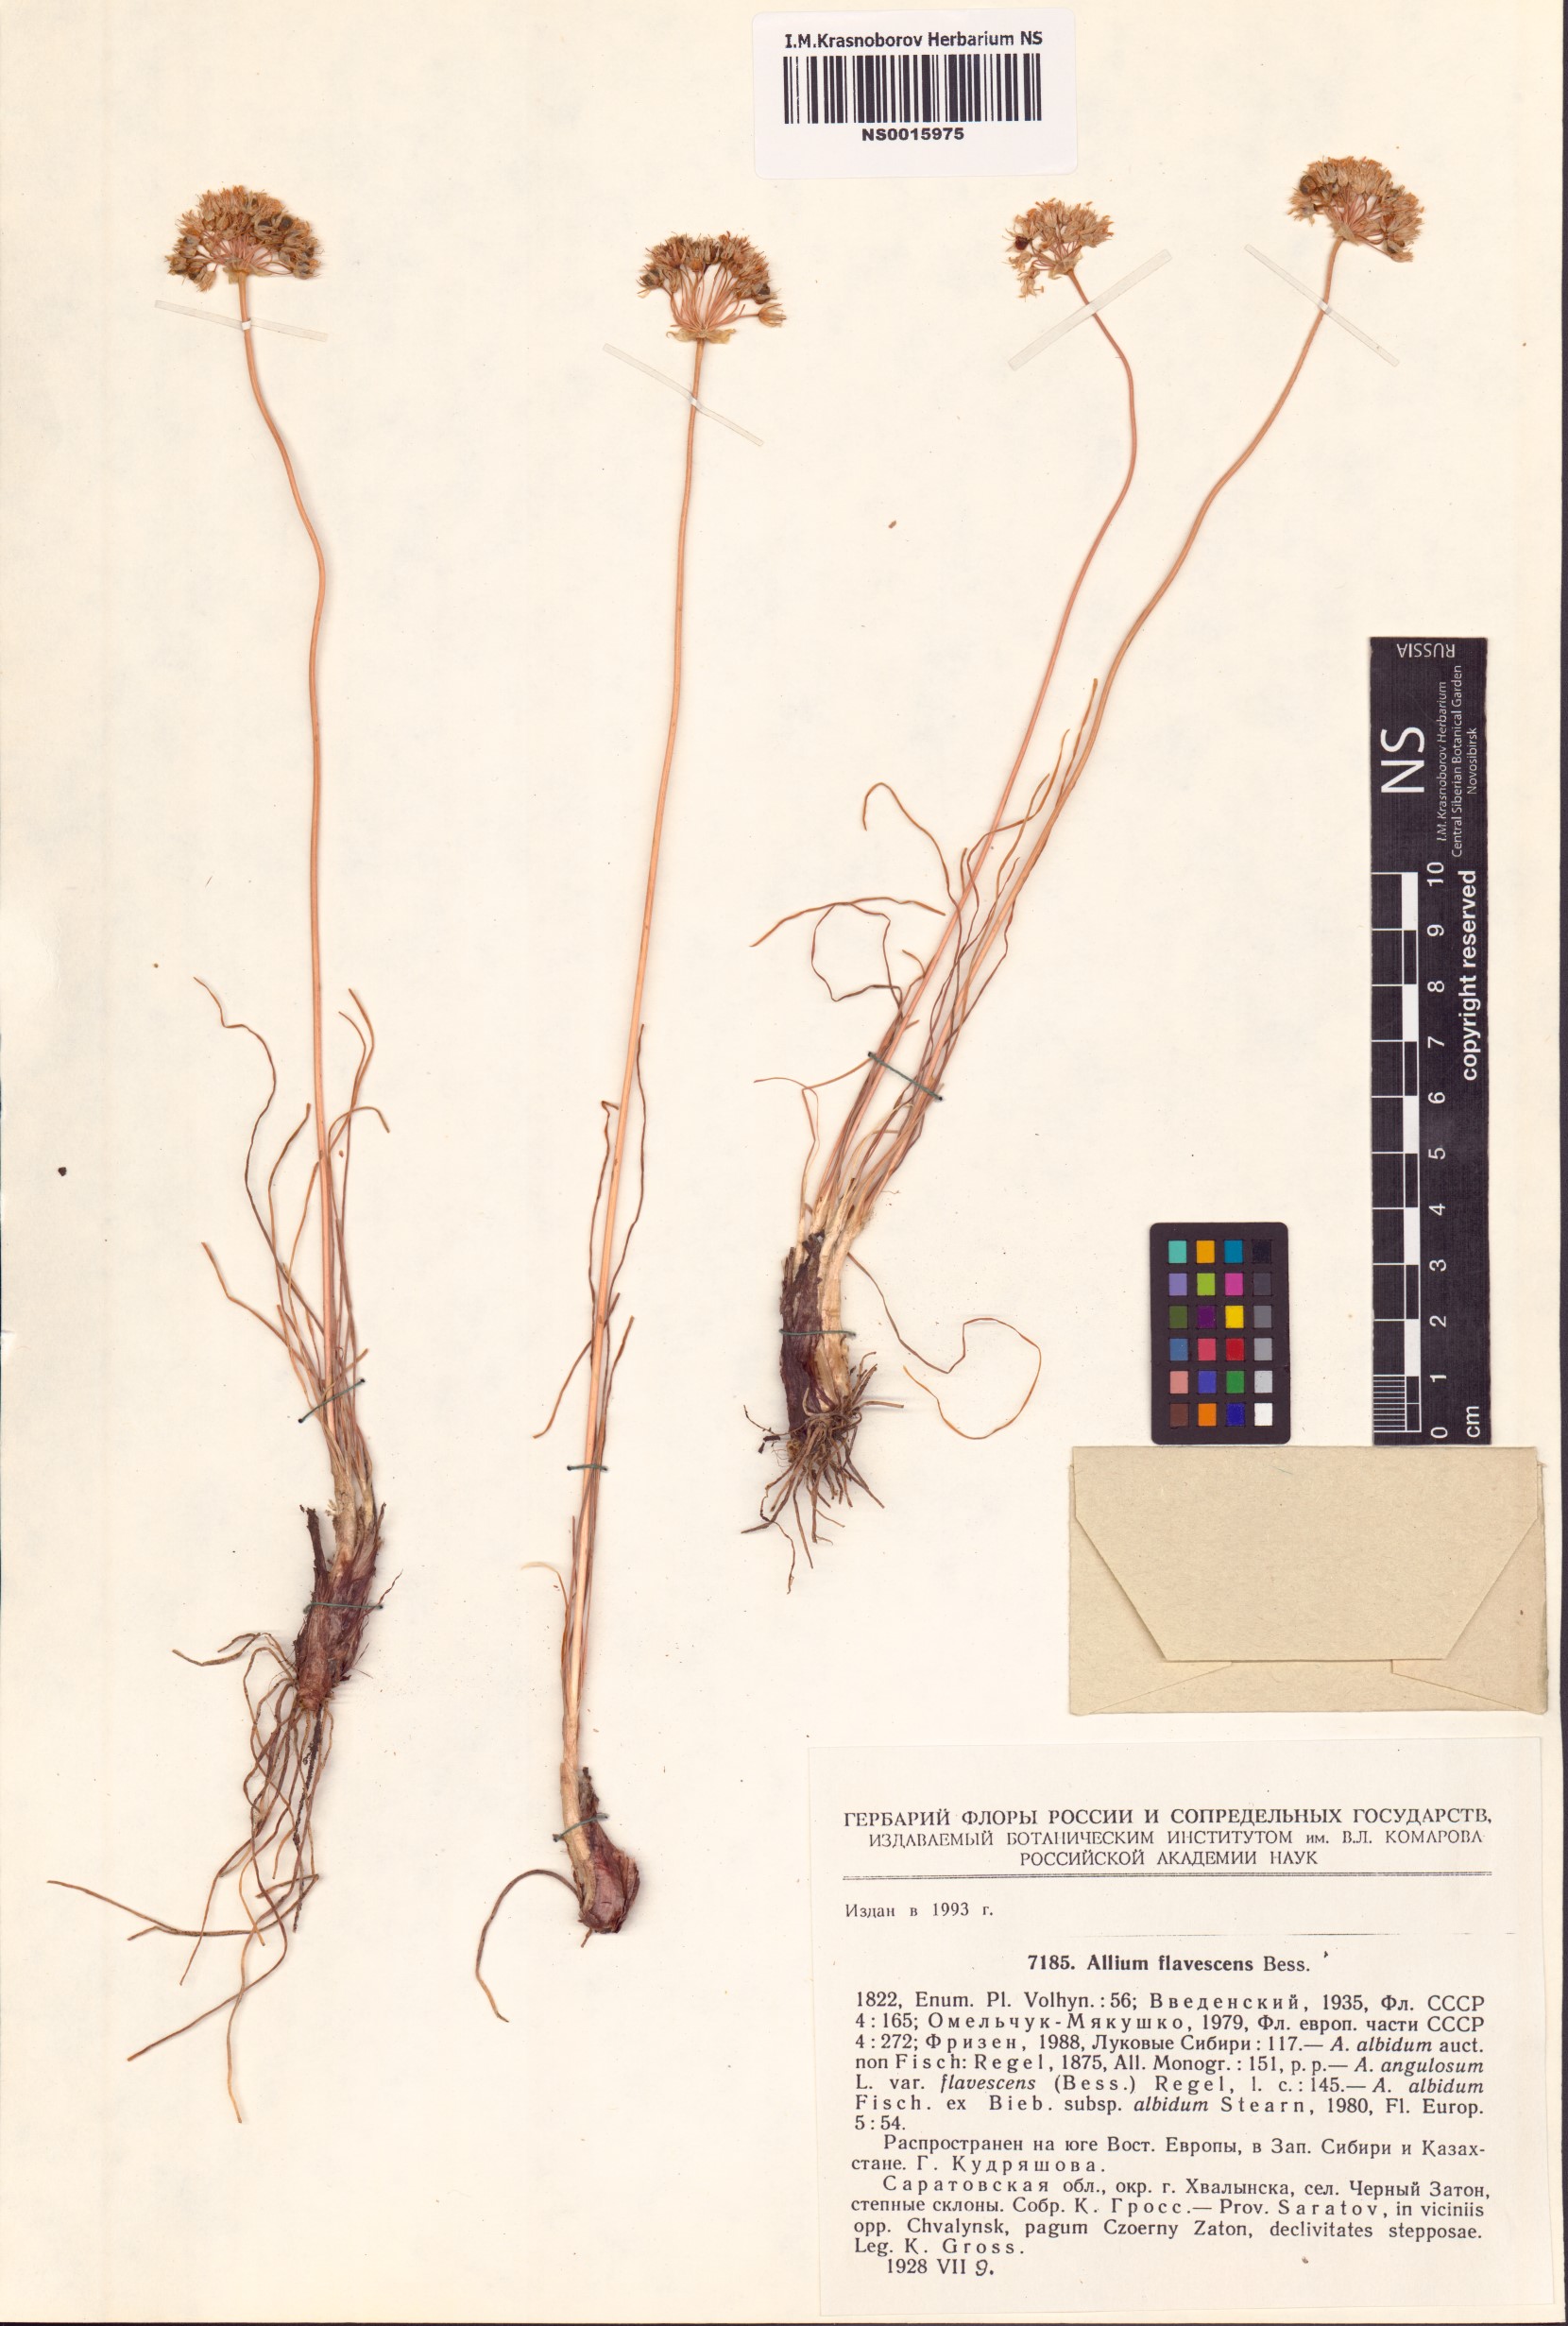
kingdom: Plantae
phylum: Tracheophyta
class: Liliopsida
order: Asparagales
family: Amaryllidaceae
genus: Allium
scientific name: Allium flavescens
